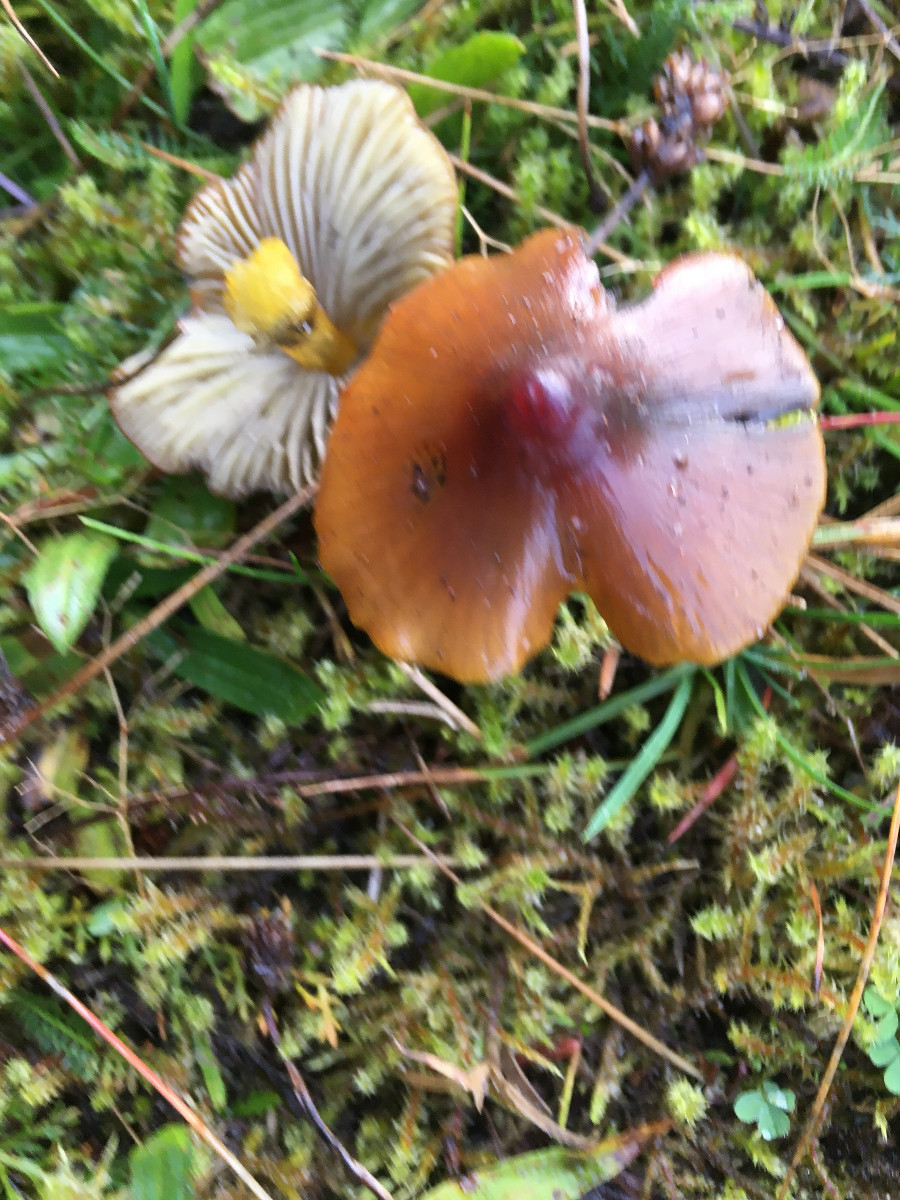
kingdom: Fungi
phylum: Basidiomycota
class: Agaricomycetes
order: Agaricales
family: Hygrophoraceae
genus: Hygrocybe
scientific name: Hygrocybe conica
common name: kegle-vokshat
